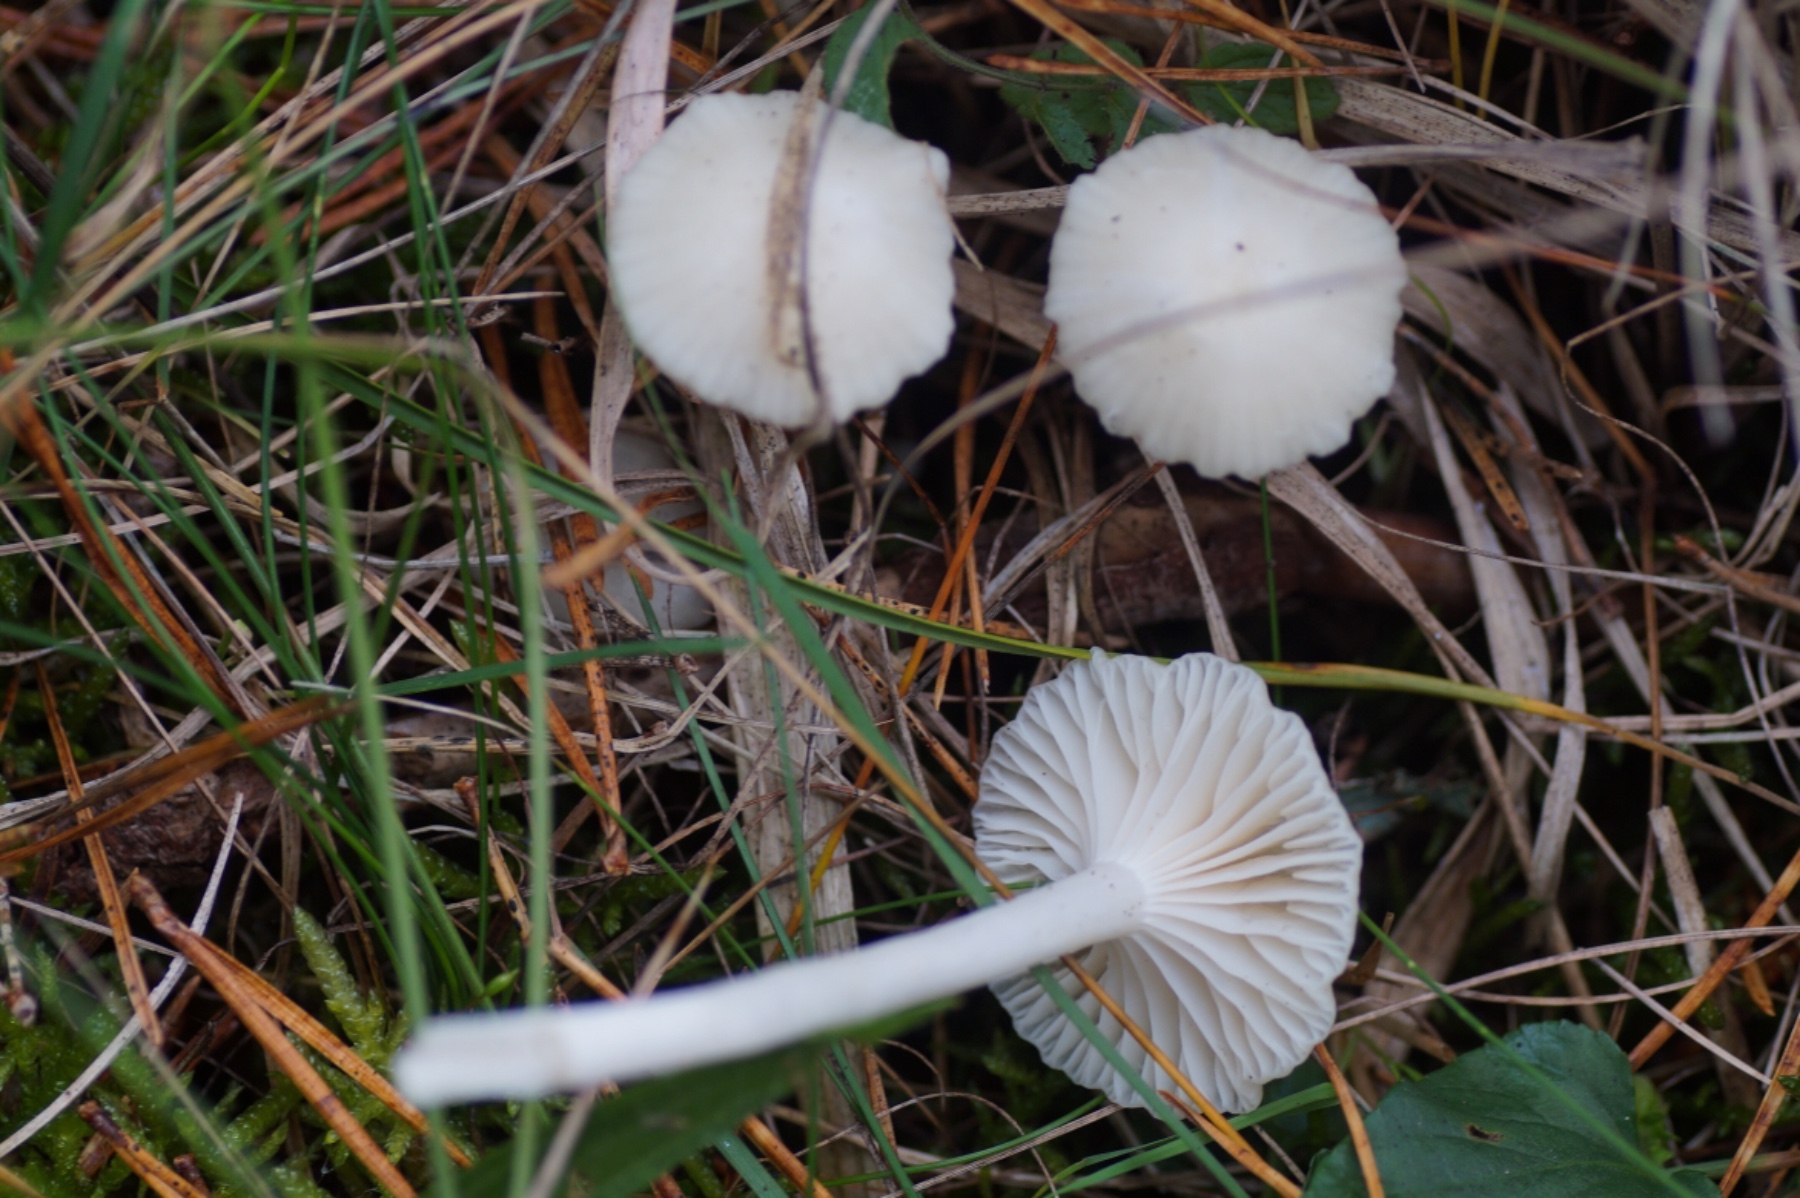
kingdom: Fungi
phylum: Basidiomycota
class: Agaricomycetes
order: Agaricales
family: Hygrophoraceae
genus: Cuphophyllus
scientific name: Cuphophyllus virgineus
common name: snehvid vokshat
